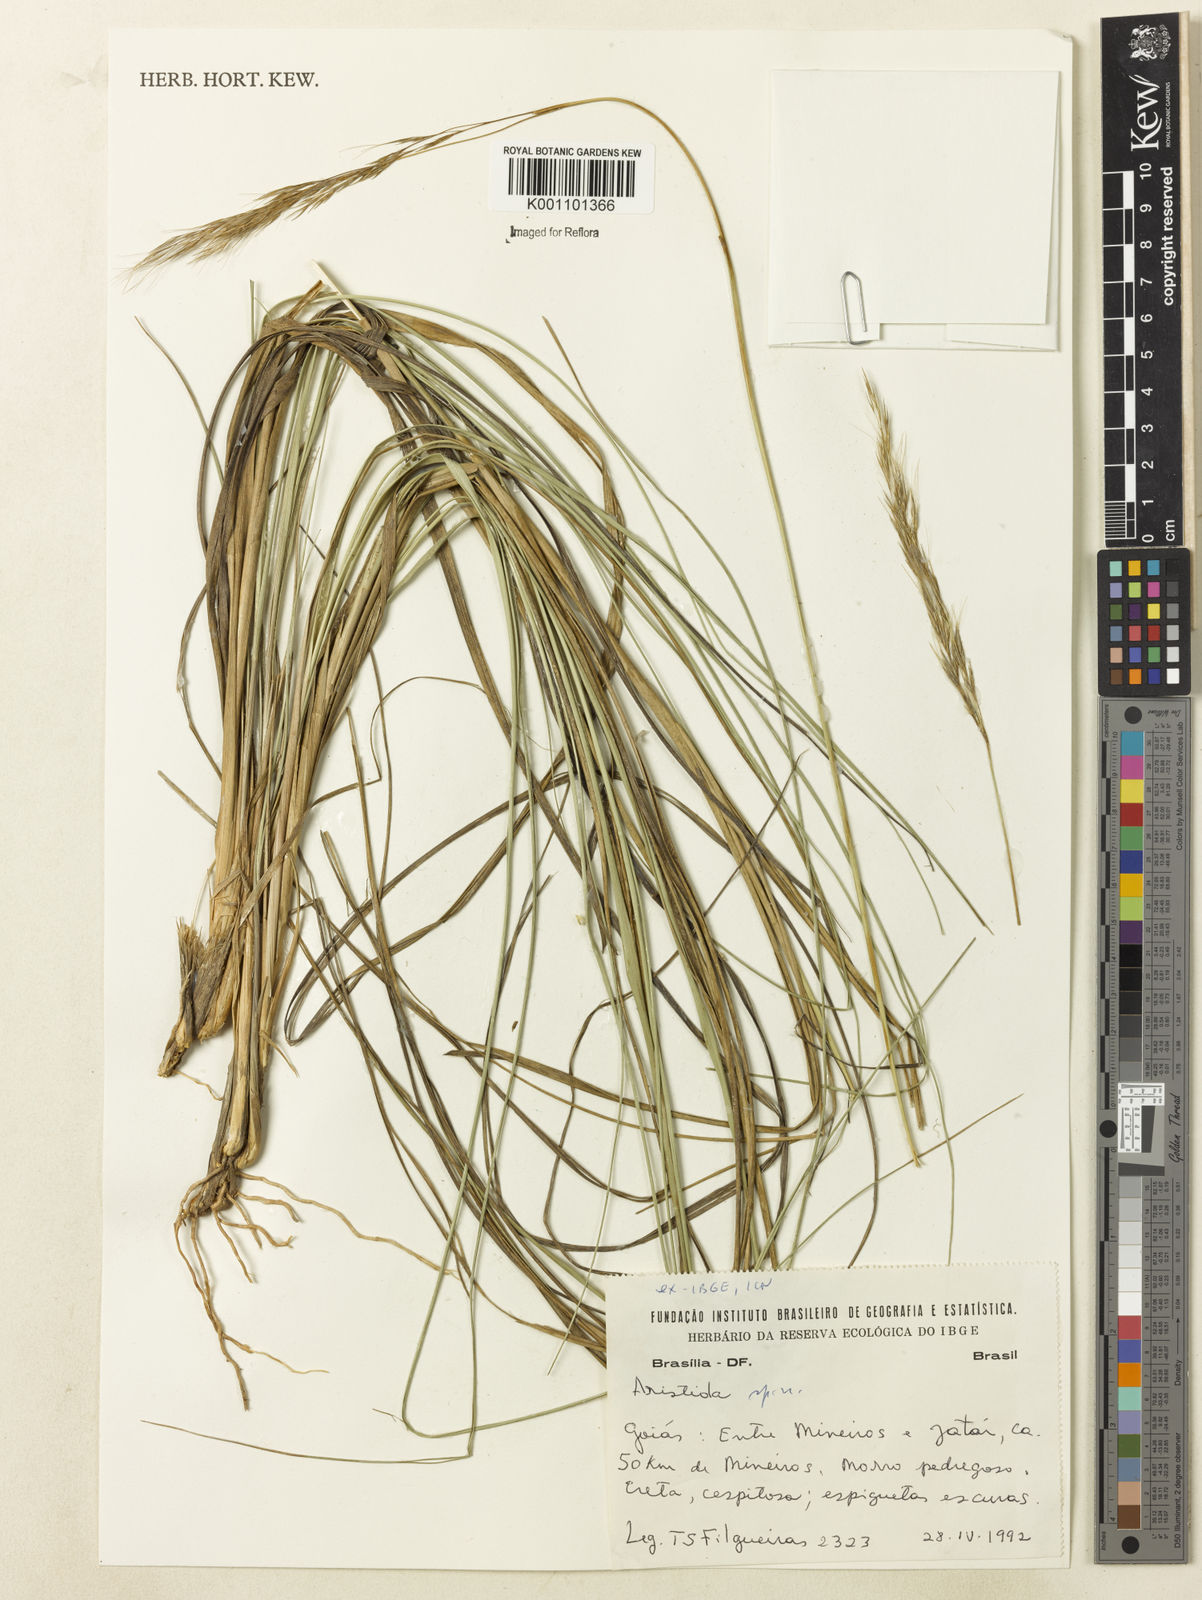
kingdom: Plantae
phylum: Tracheophyta
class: Liliopsida
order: Poales
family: Poaceae
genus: Aristida
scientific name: Aristida
